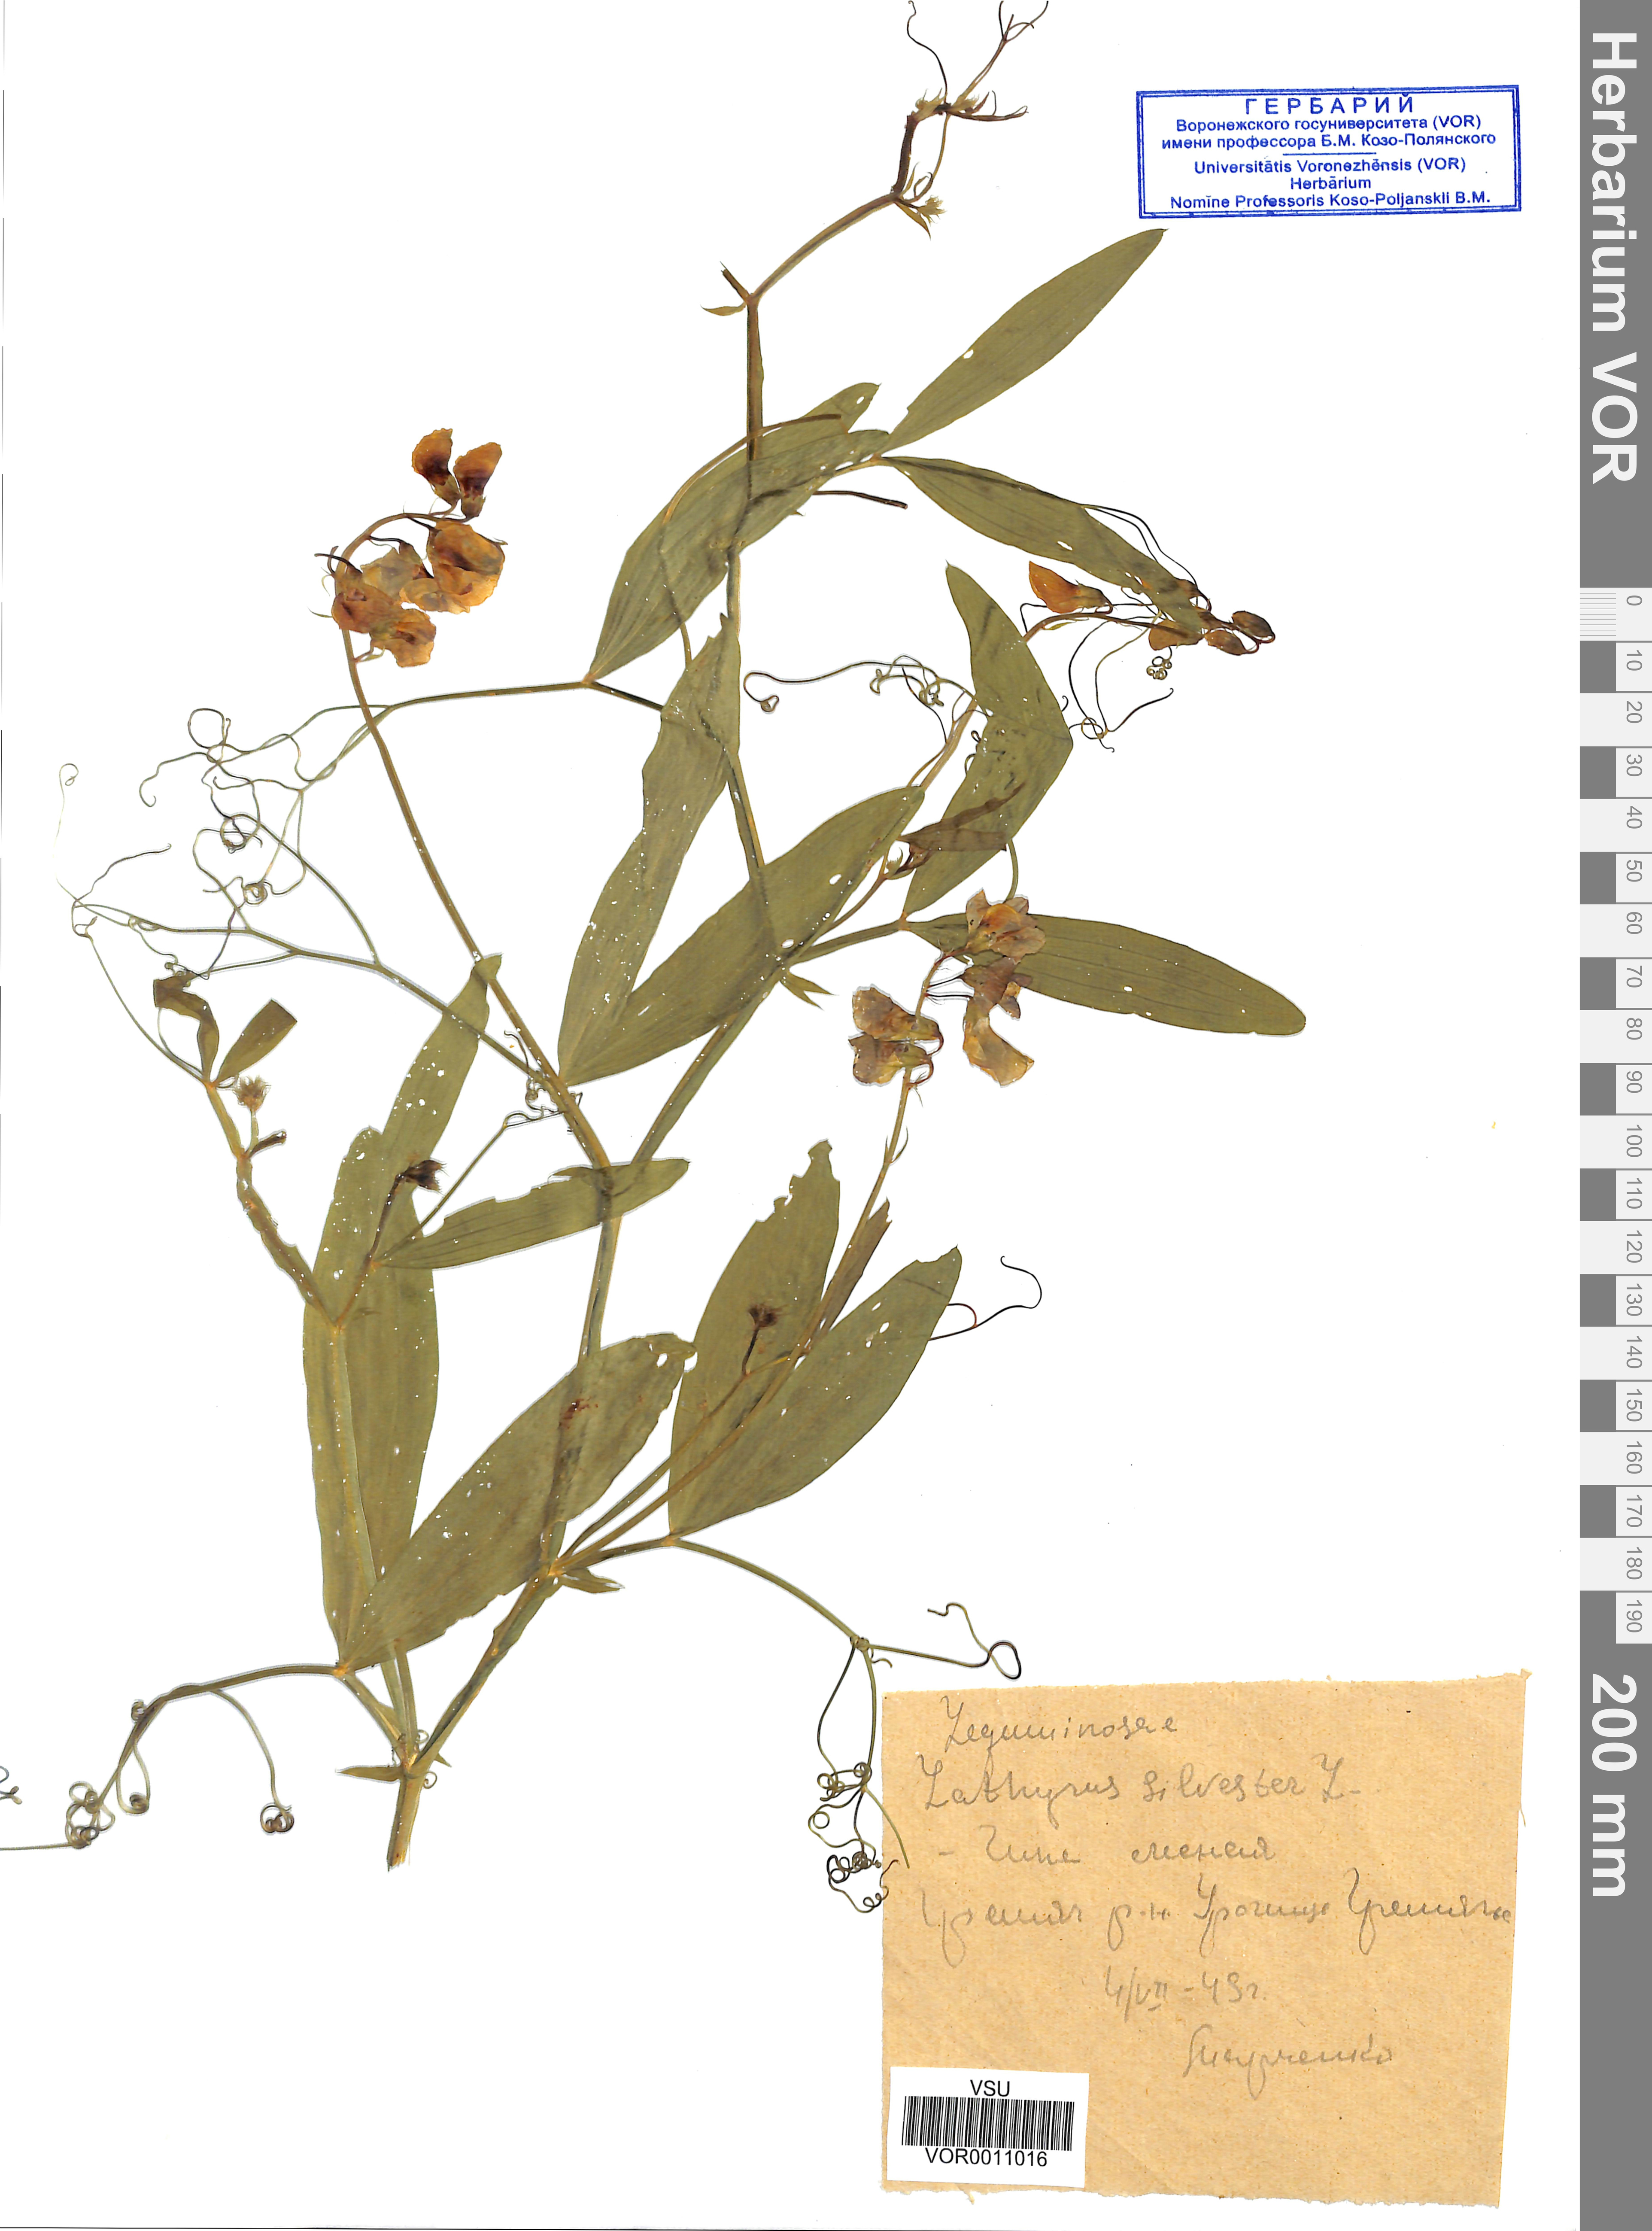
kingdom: Plantae
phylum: Tracheophyta
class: Magnoliopsida
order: Fabales
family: Fabaceae
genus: Lathyrus
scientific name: Lathyrus sylvestris
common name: Flat pea
